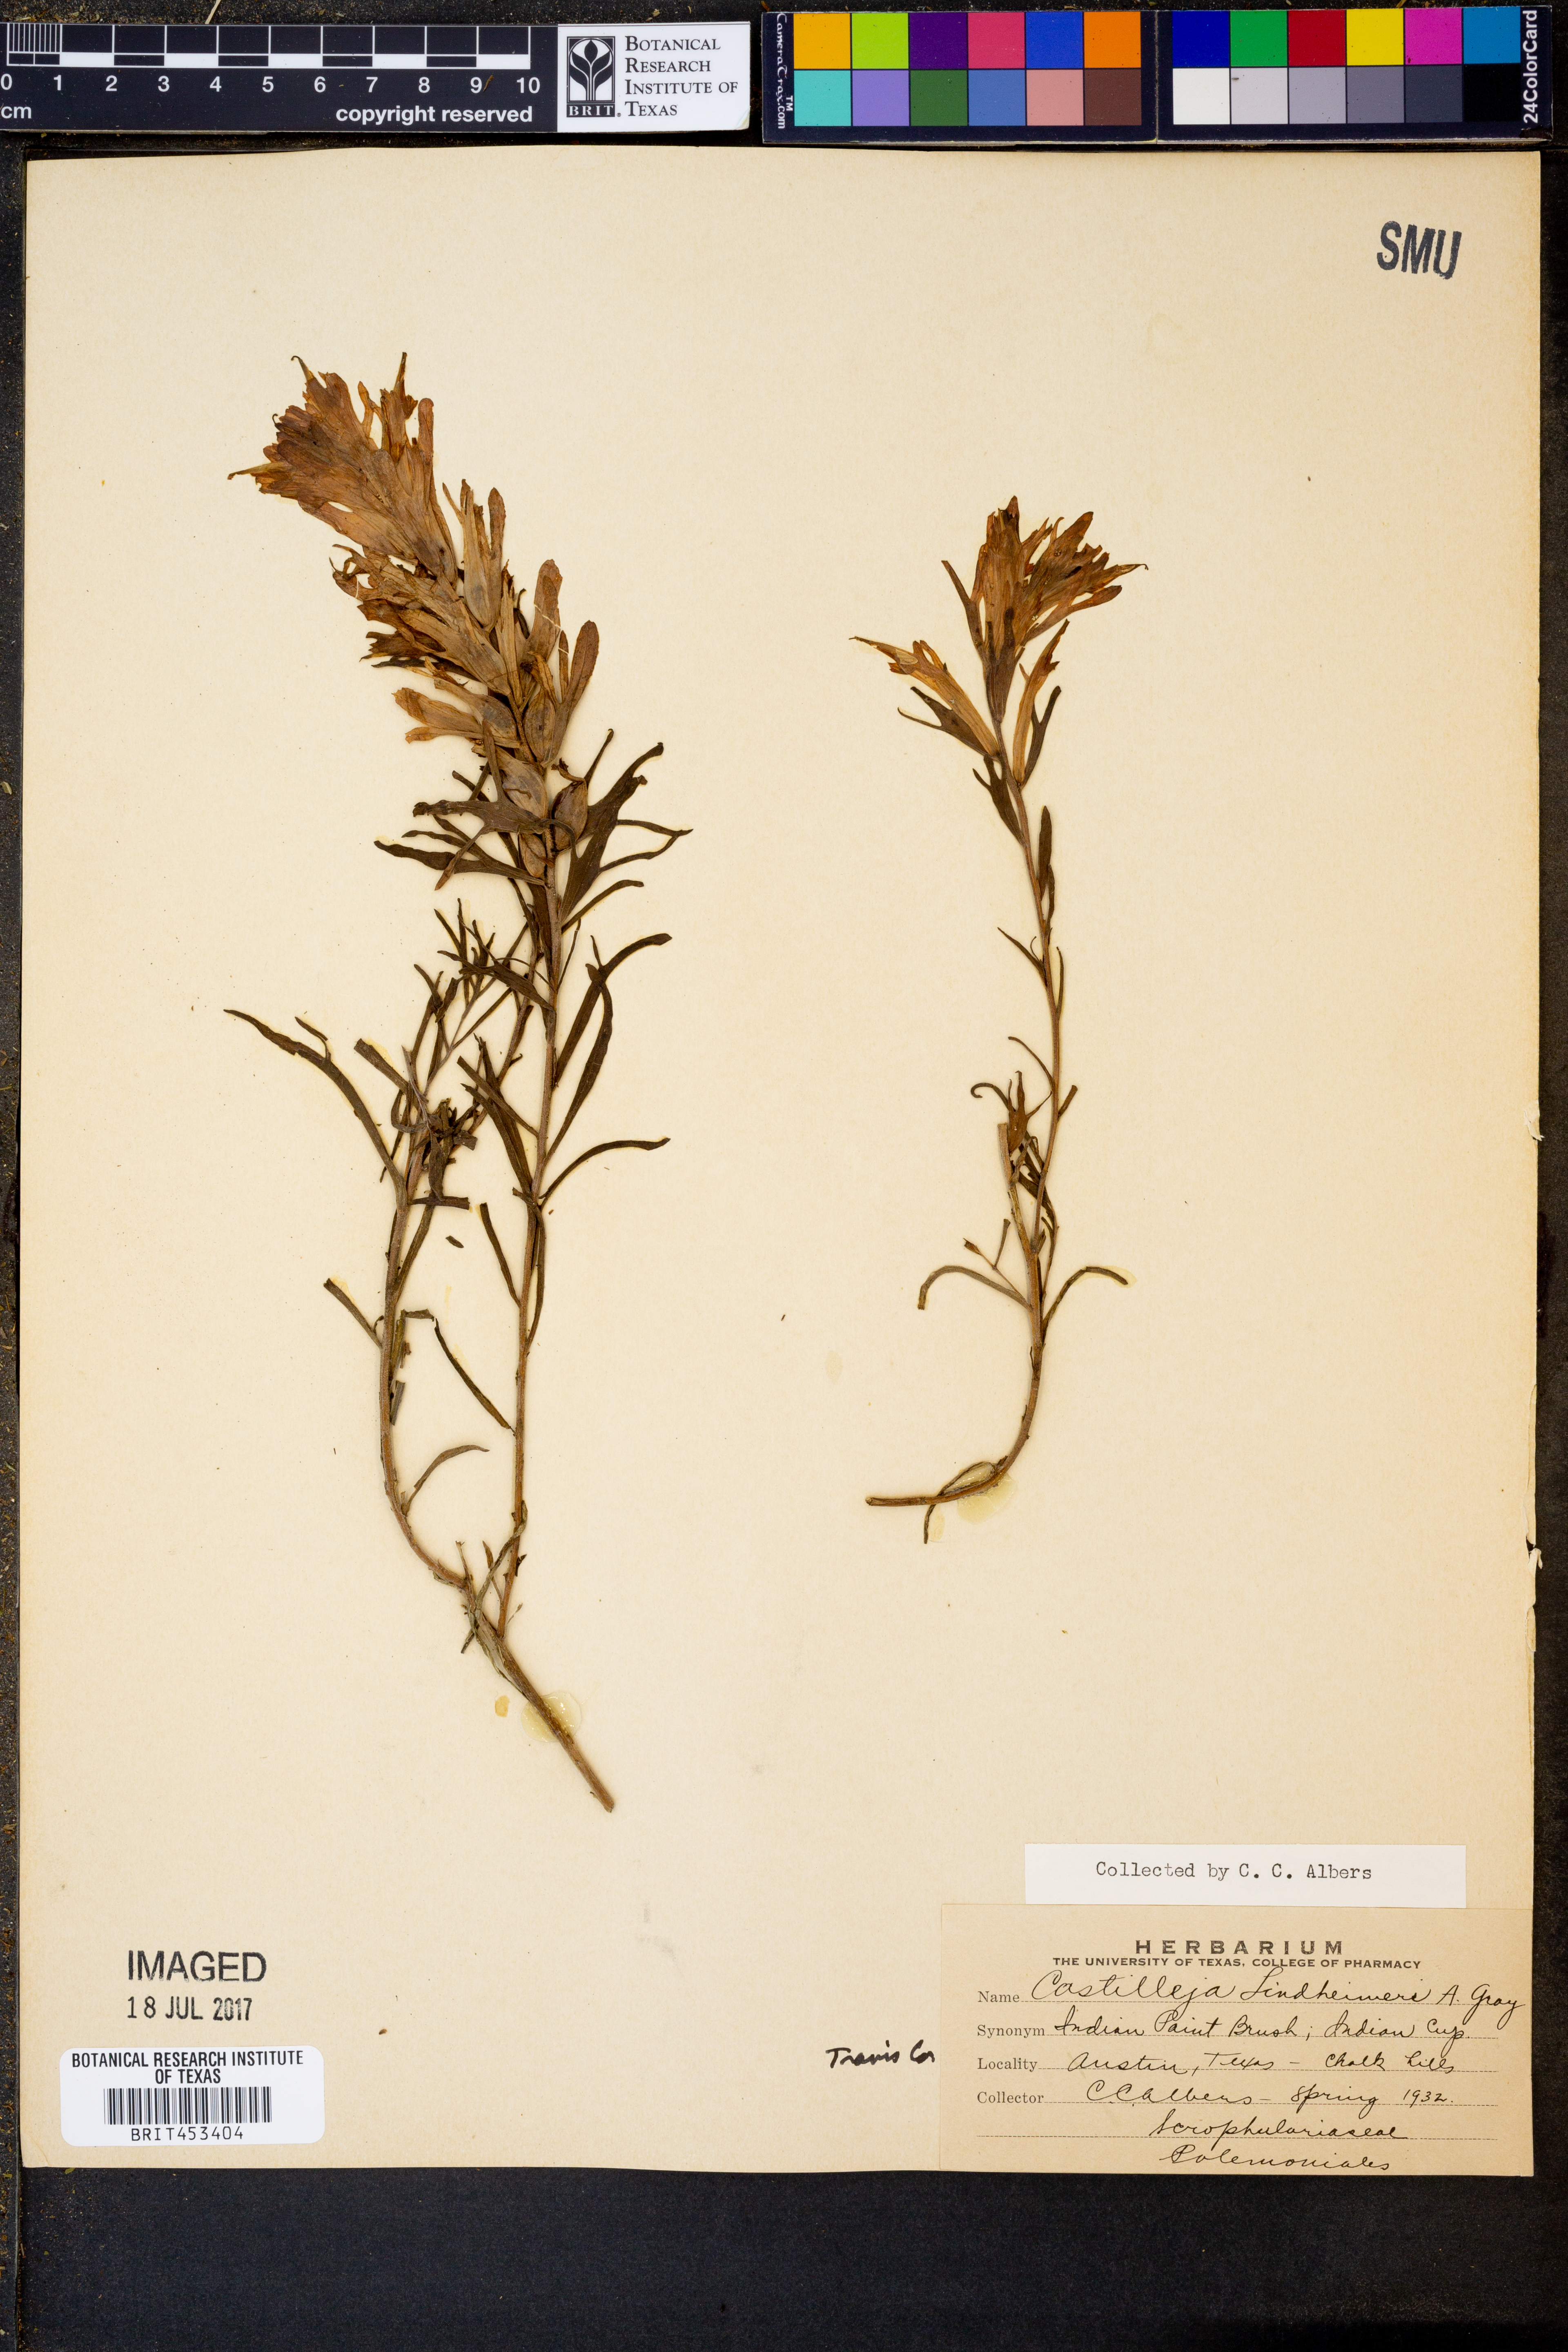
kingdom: Plantae
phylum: Tracheophyta
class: Magnoliopsida
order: Lamiales
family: Orobanchaceae
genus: Castilleja
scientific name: Castilleja lindheimeri
